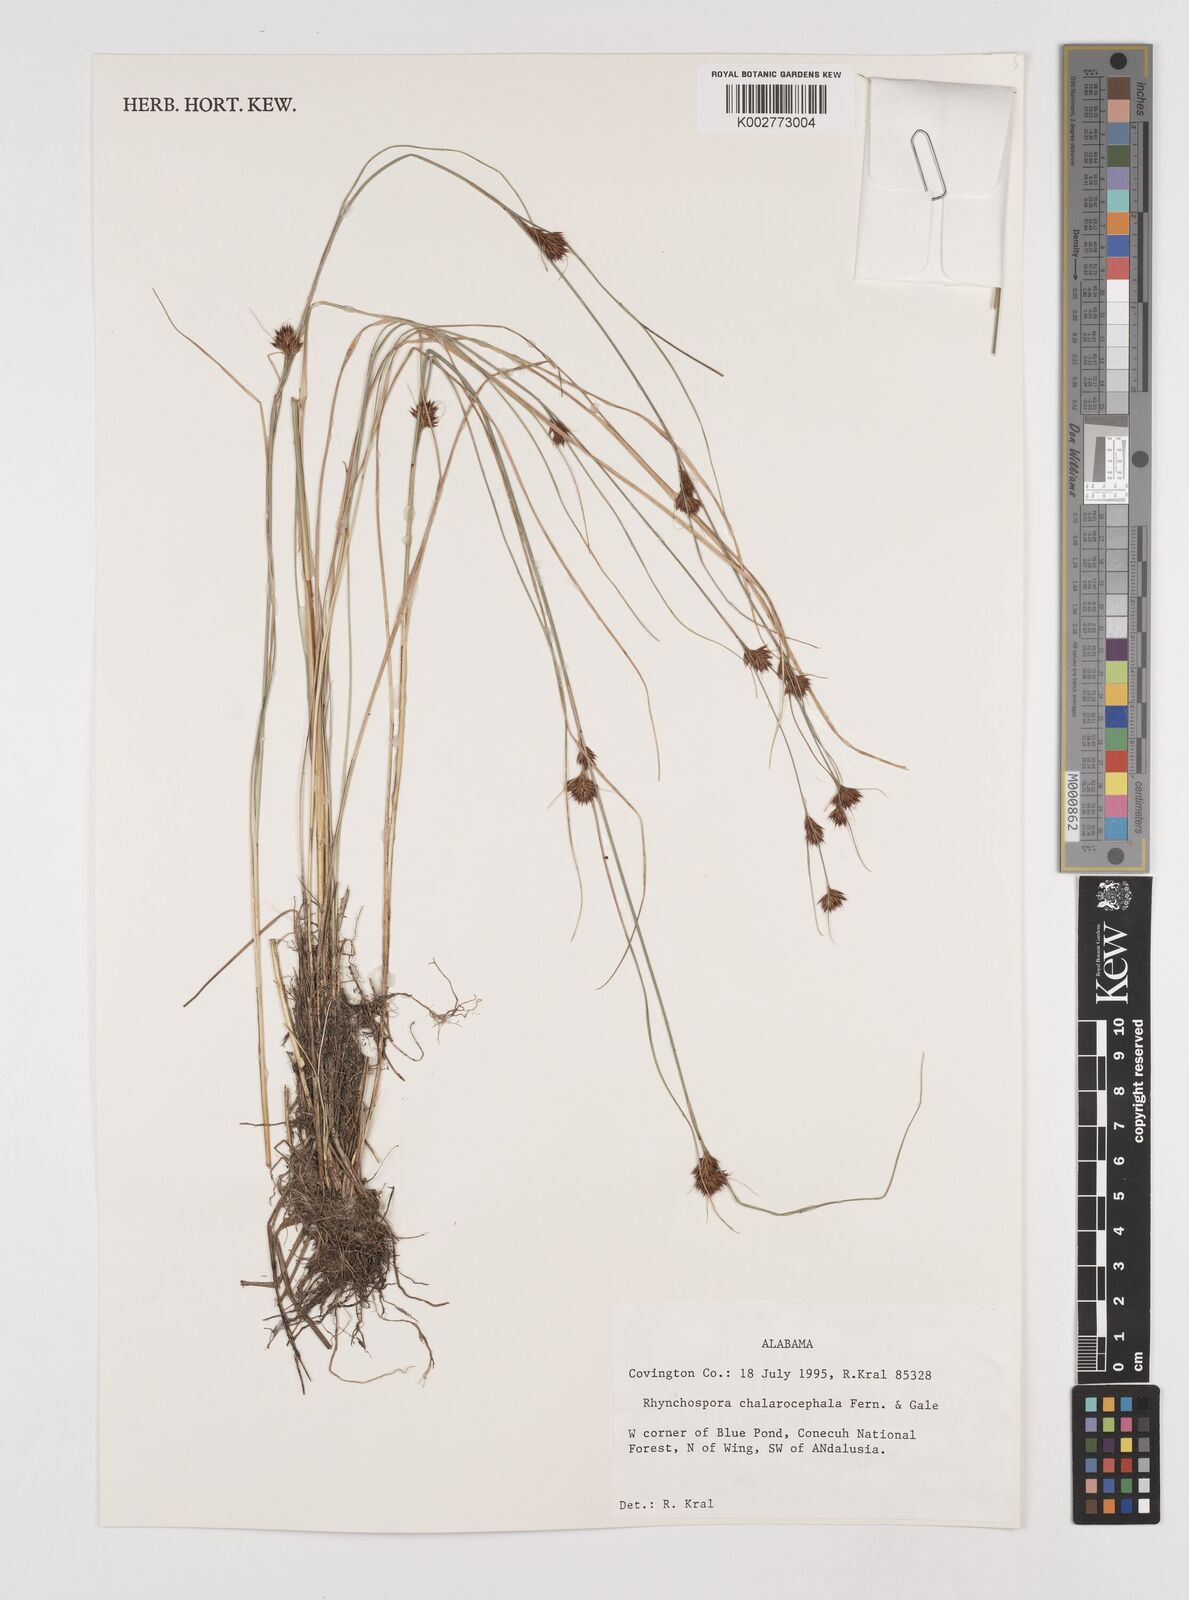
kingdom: Plantae
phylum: Tracheophyta
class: Liliopsida
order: Poales
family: Cyperaceae
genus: Rhynchospora
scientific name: Rhynchospora chalarocephala
